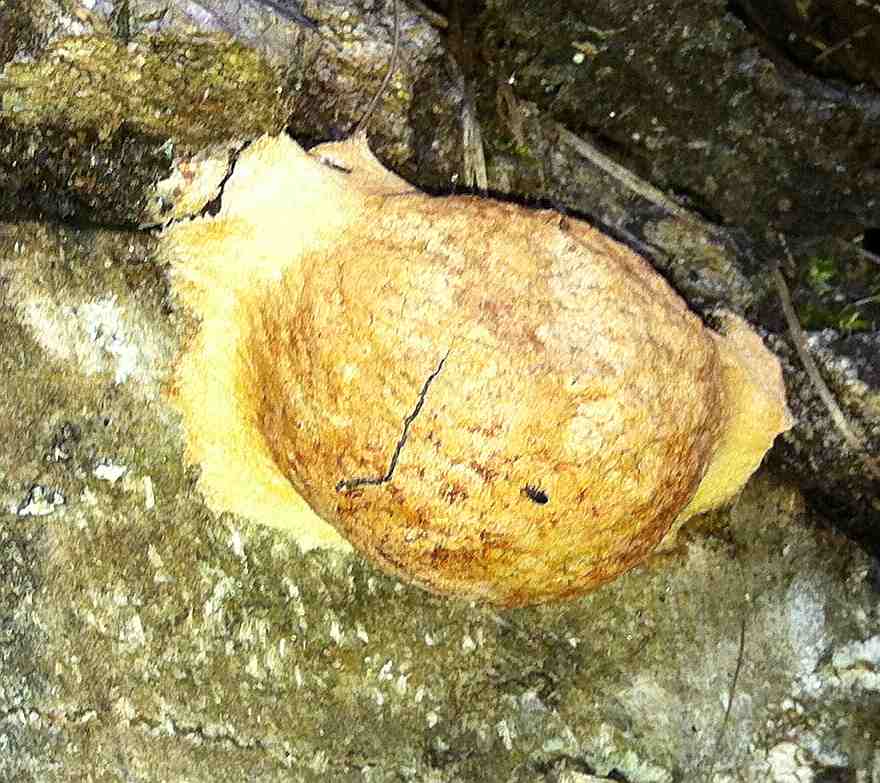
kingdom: Protozoa
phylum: Mycetozoa
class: Myxomycetes
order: Physarales
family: Physaraceae
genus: Fuligo
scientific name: Fuligo leviderma
